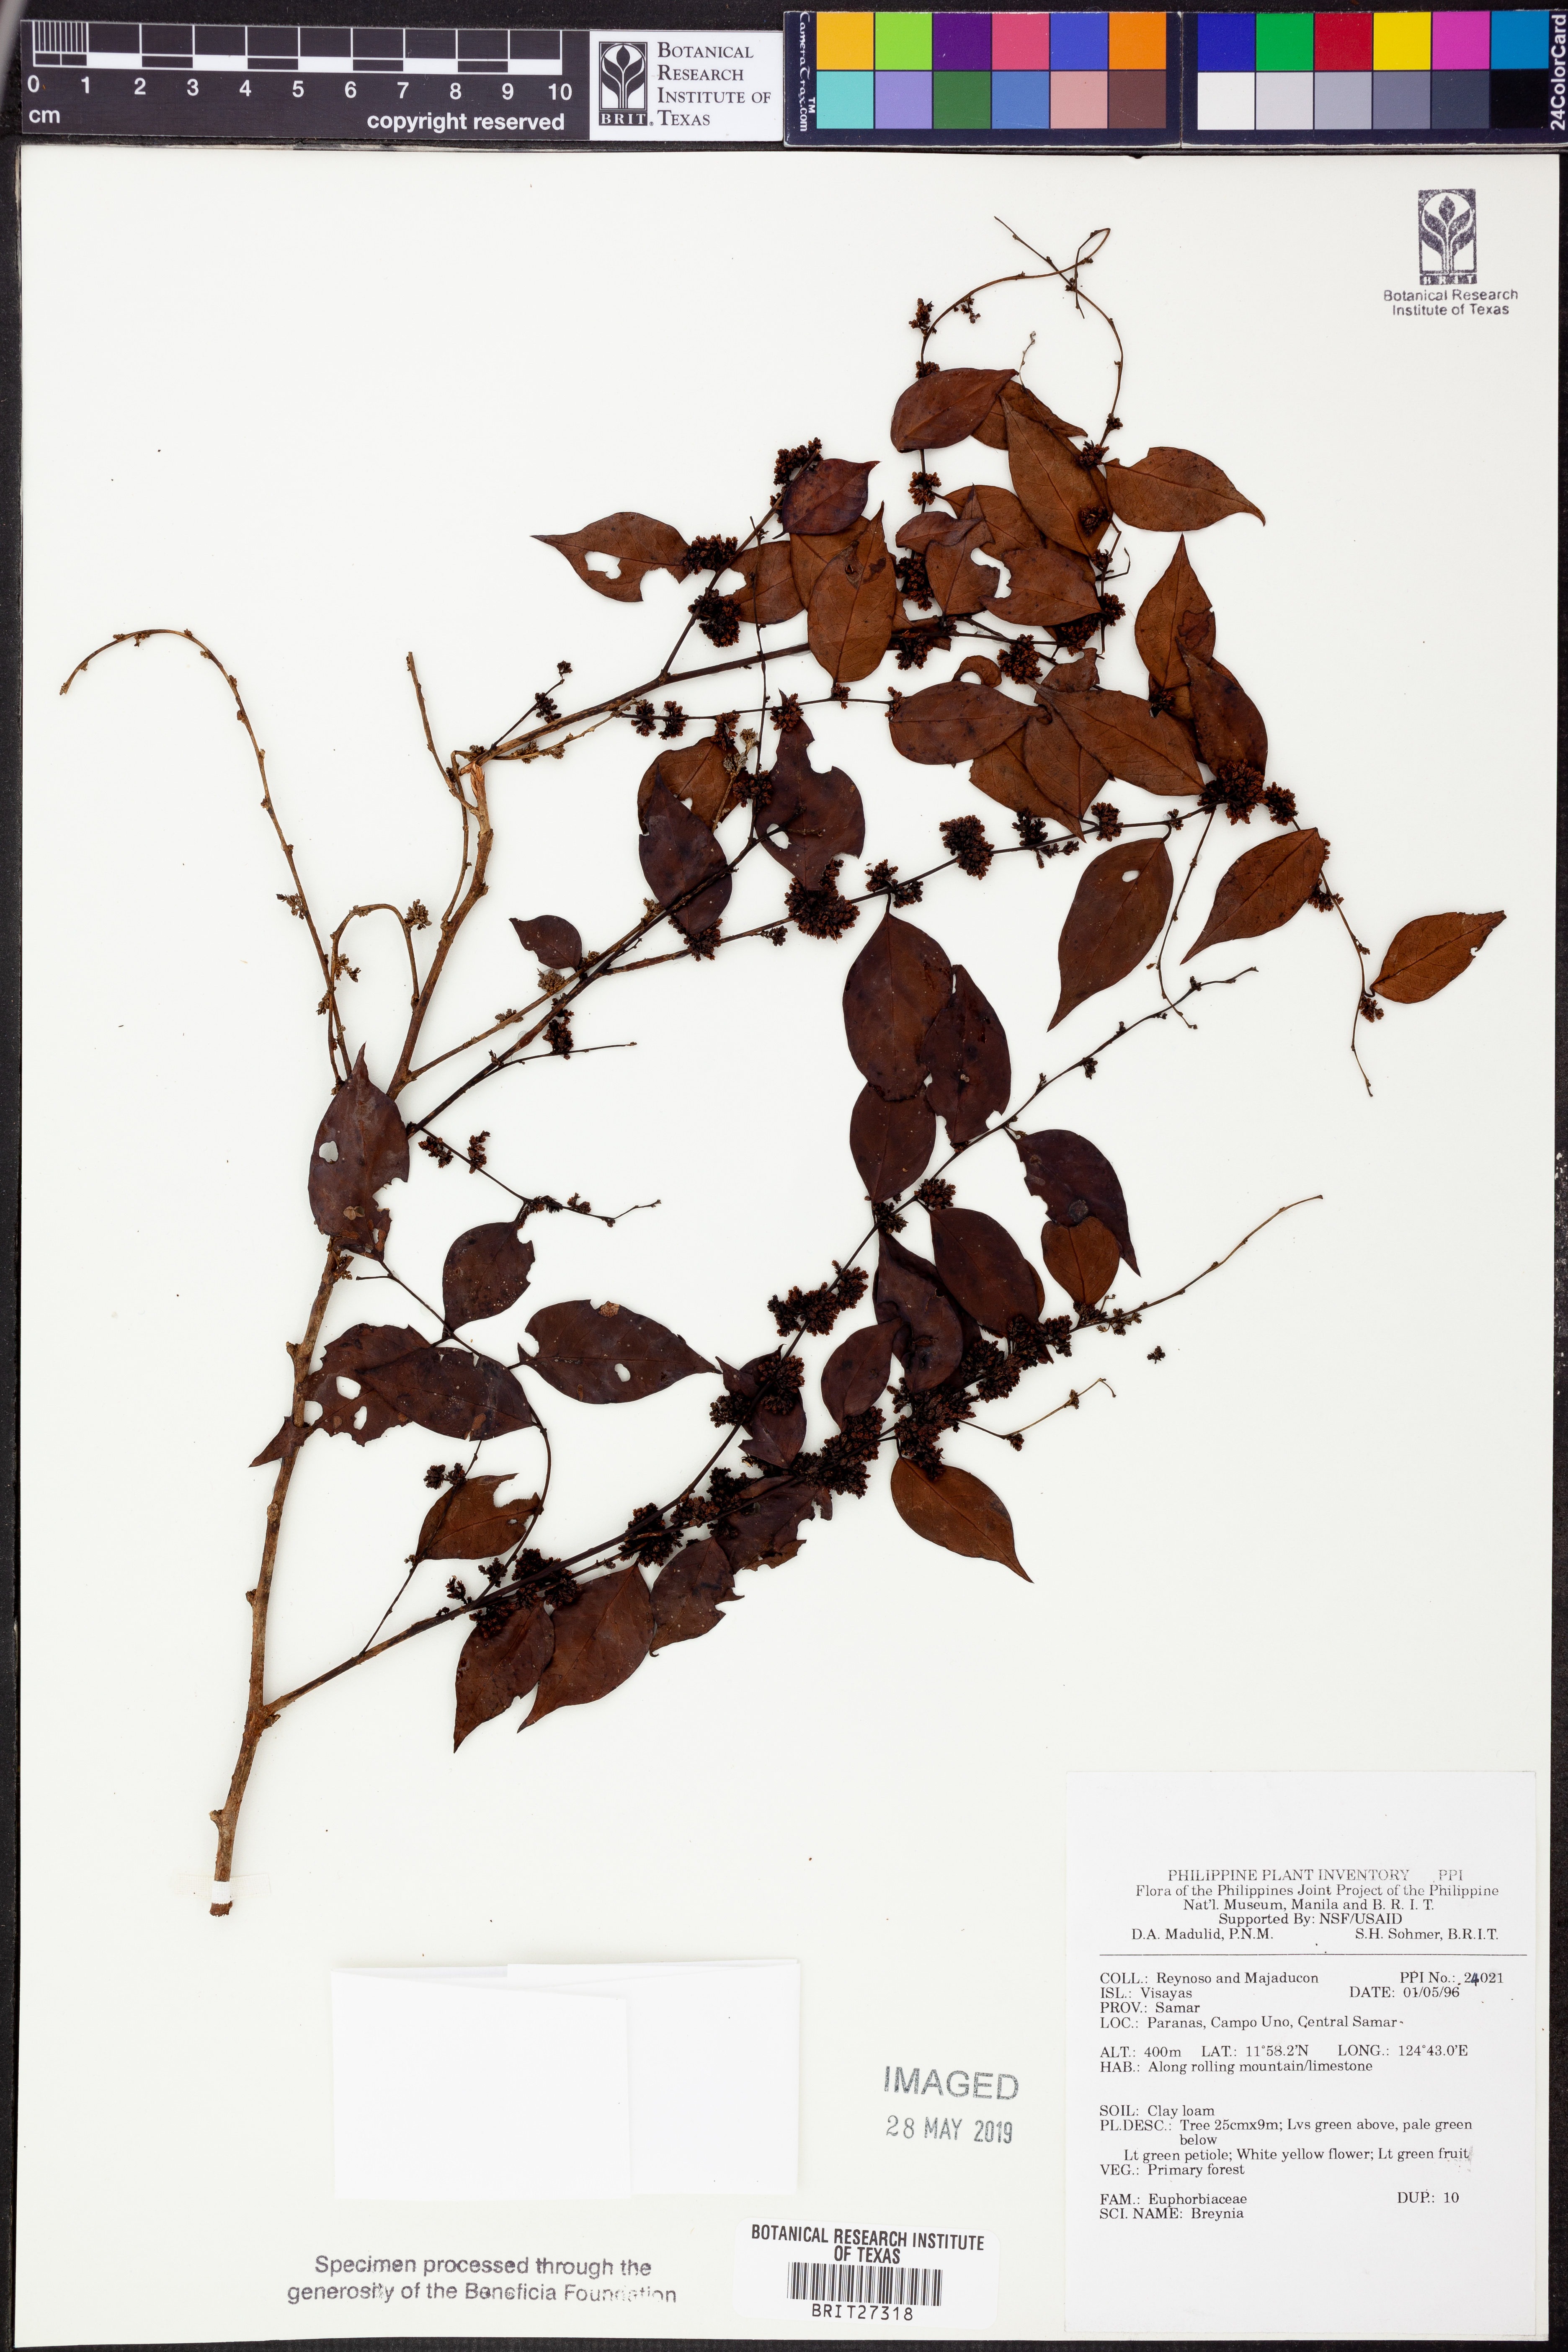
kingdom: Plantae
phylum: Tracheophyta
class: Magnoliopsida
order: Malpighiales
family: Phyllanthaceae
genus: Breynia
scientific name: Breynia
